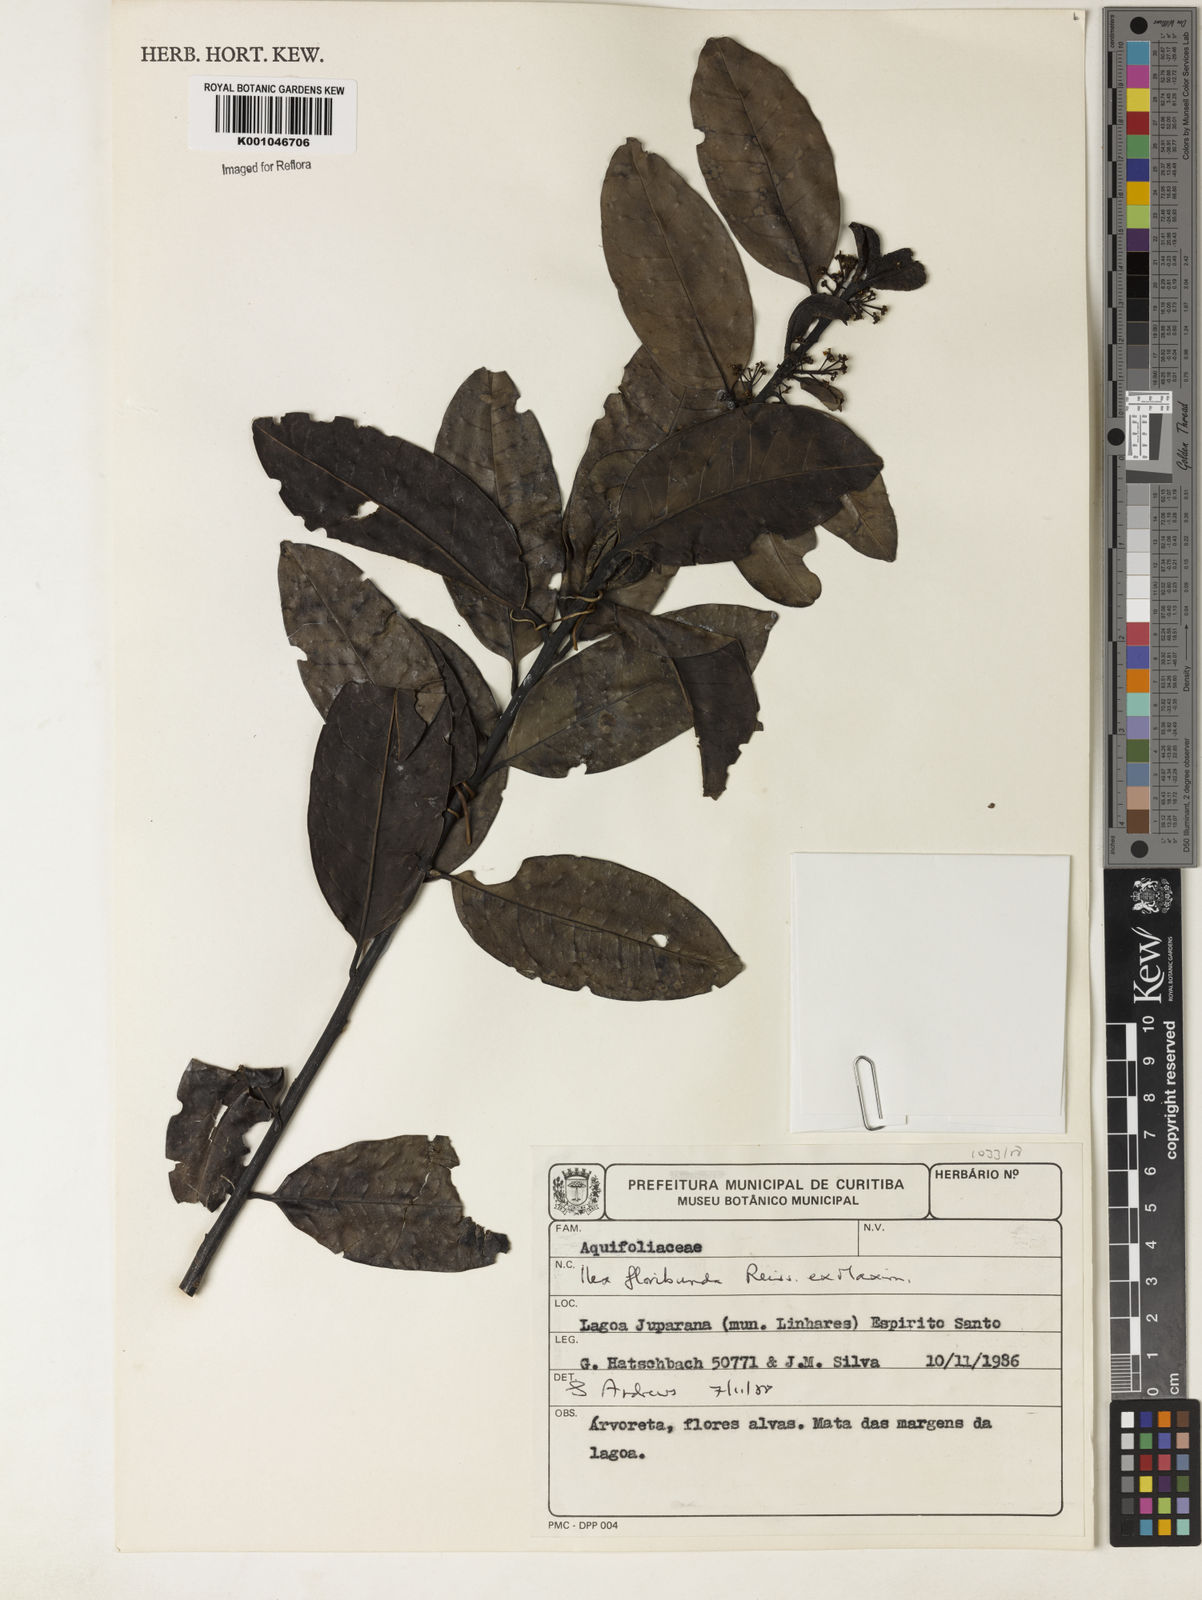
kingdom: Plantae
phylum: Tracheophyta
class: Magnoliopsida
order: Aquifoliales
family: Aquifoliaceae
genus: Ilex
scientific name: Ilex floribunda
